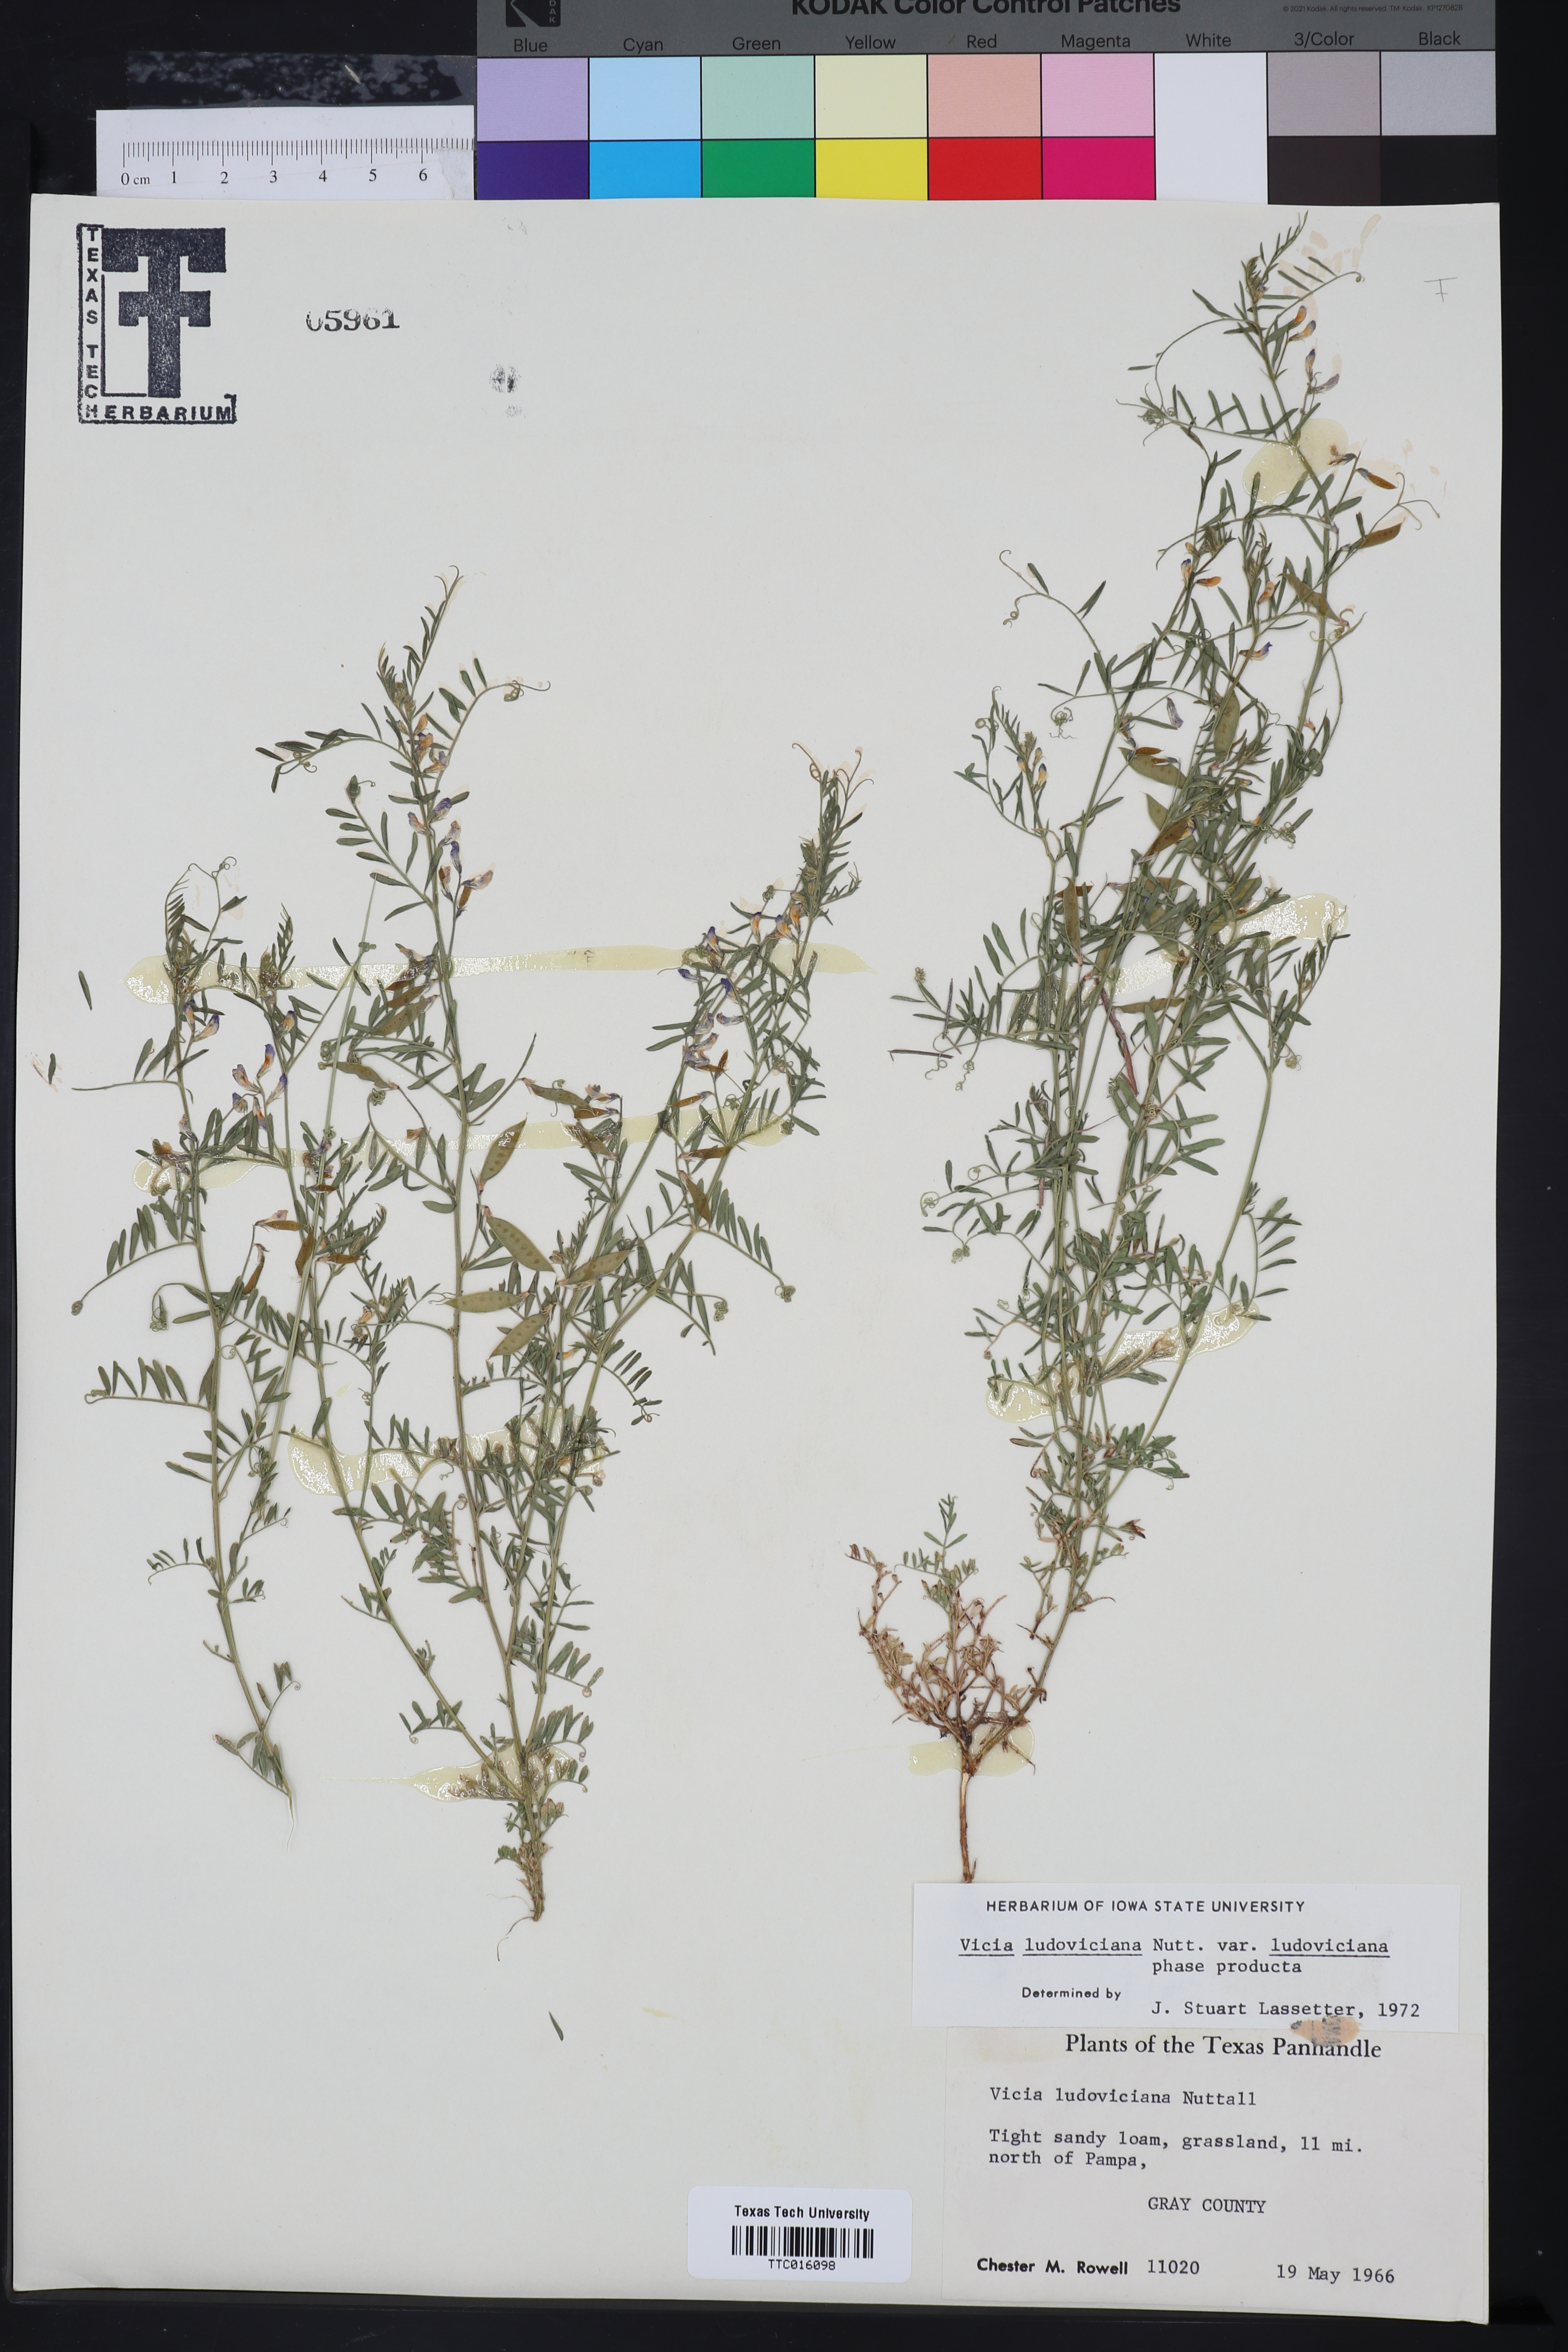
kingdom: Plantae
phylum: Tracheophyta
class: Magnoliopsida
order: Fabales
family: Fabaceae
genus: Vicia
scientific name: Vicia ludoviciana
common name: Louisiana vetch
